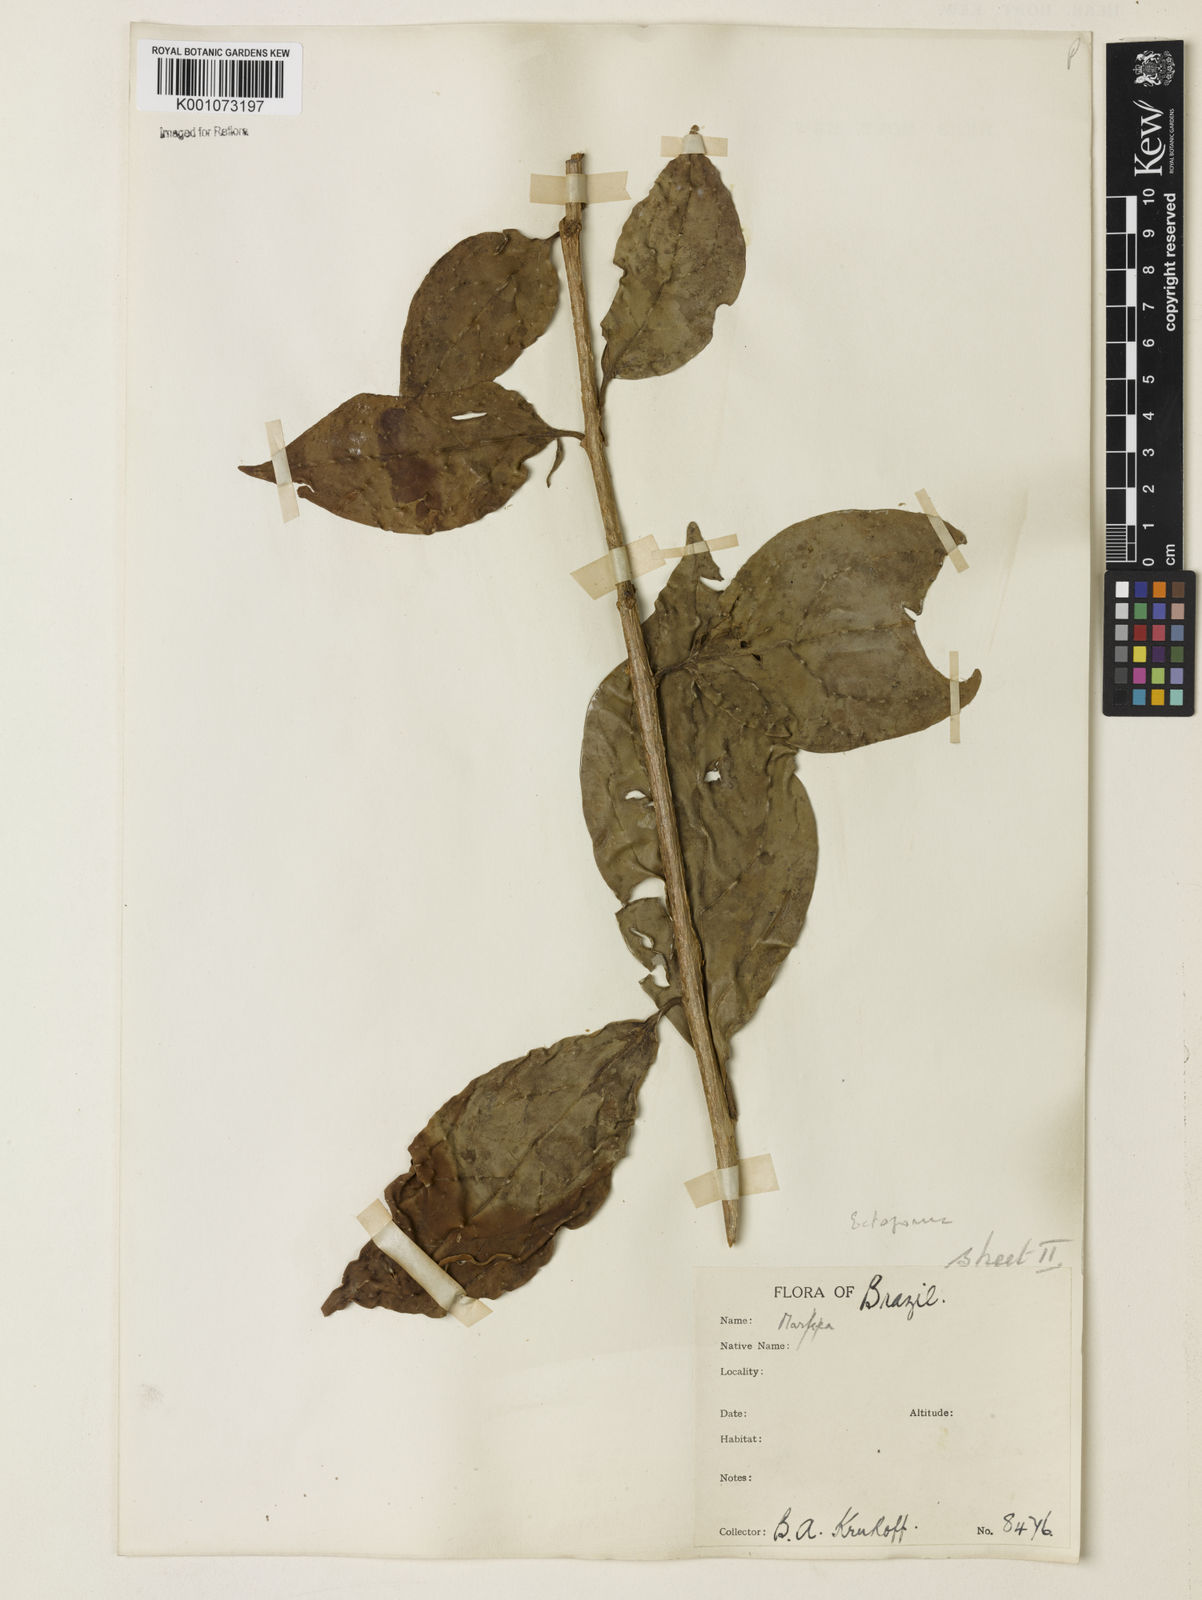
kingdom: Plantae
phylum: Tracheophyta
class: Magnoliopsida
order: Solanales
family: Solanaceae
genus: Juanulloa
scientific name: Juanulloa parasitica
